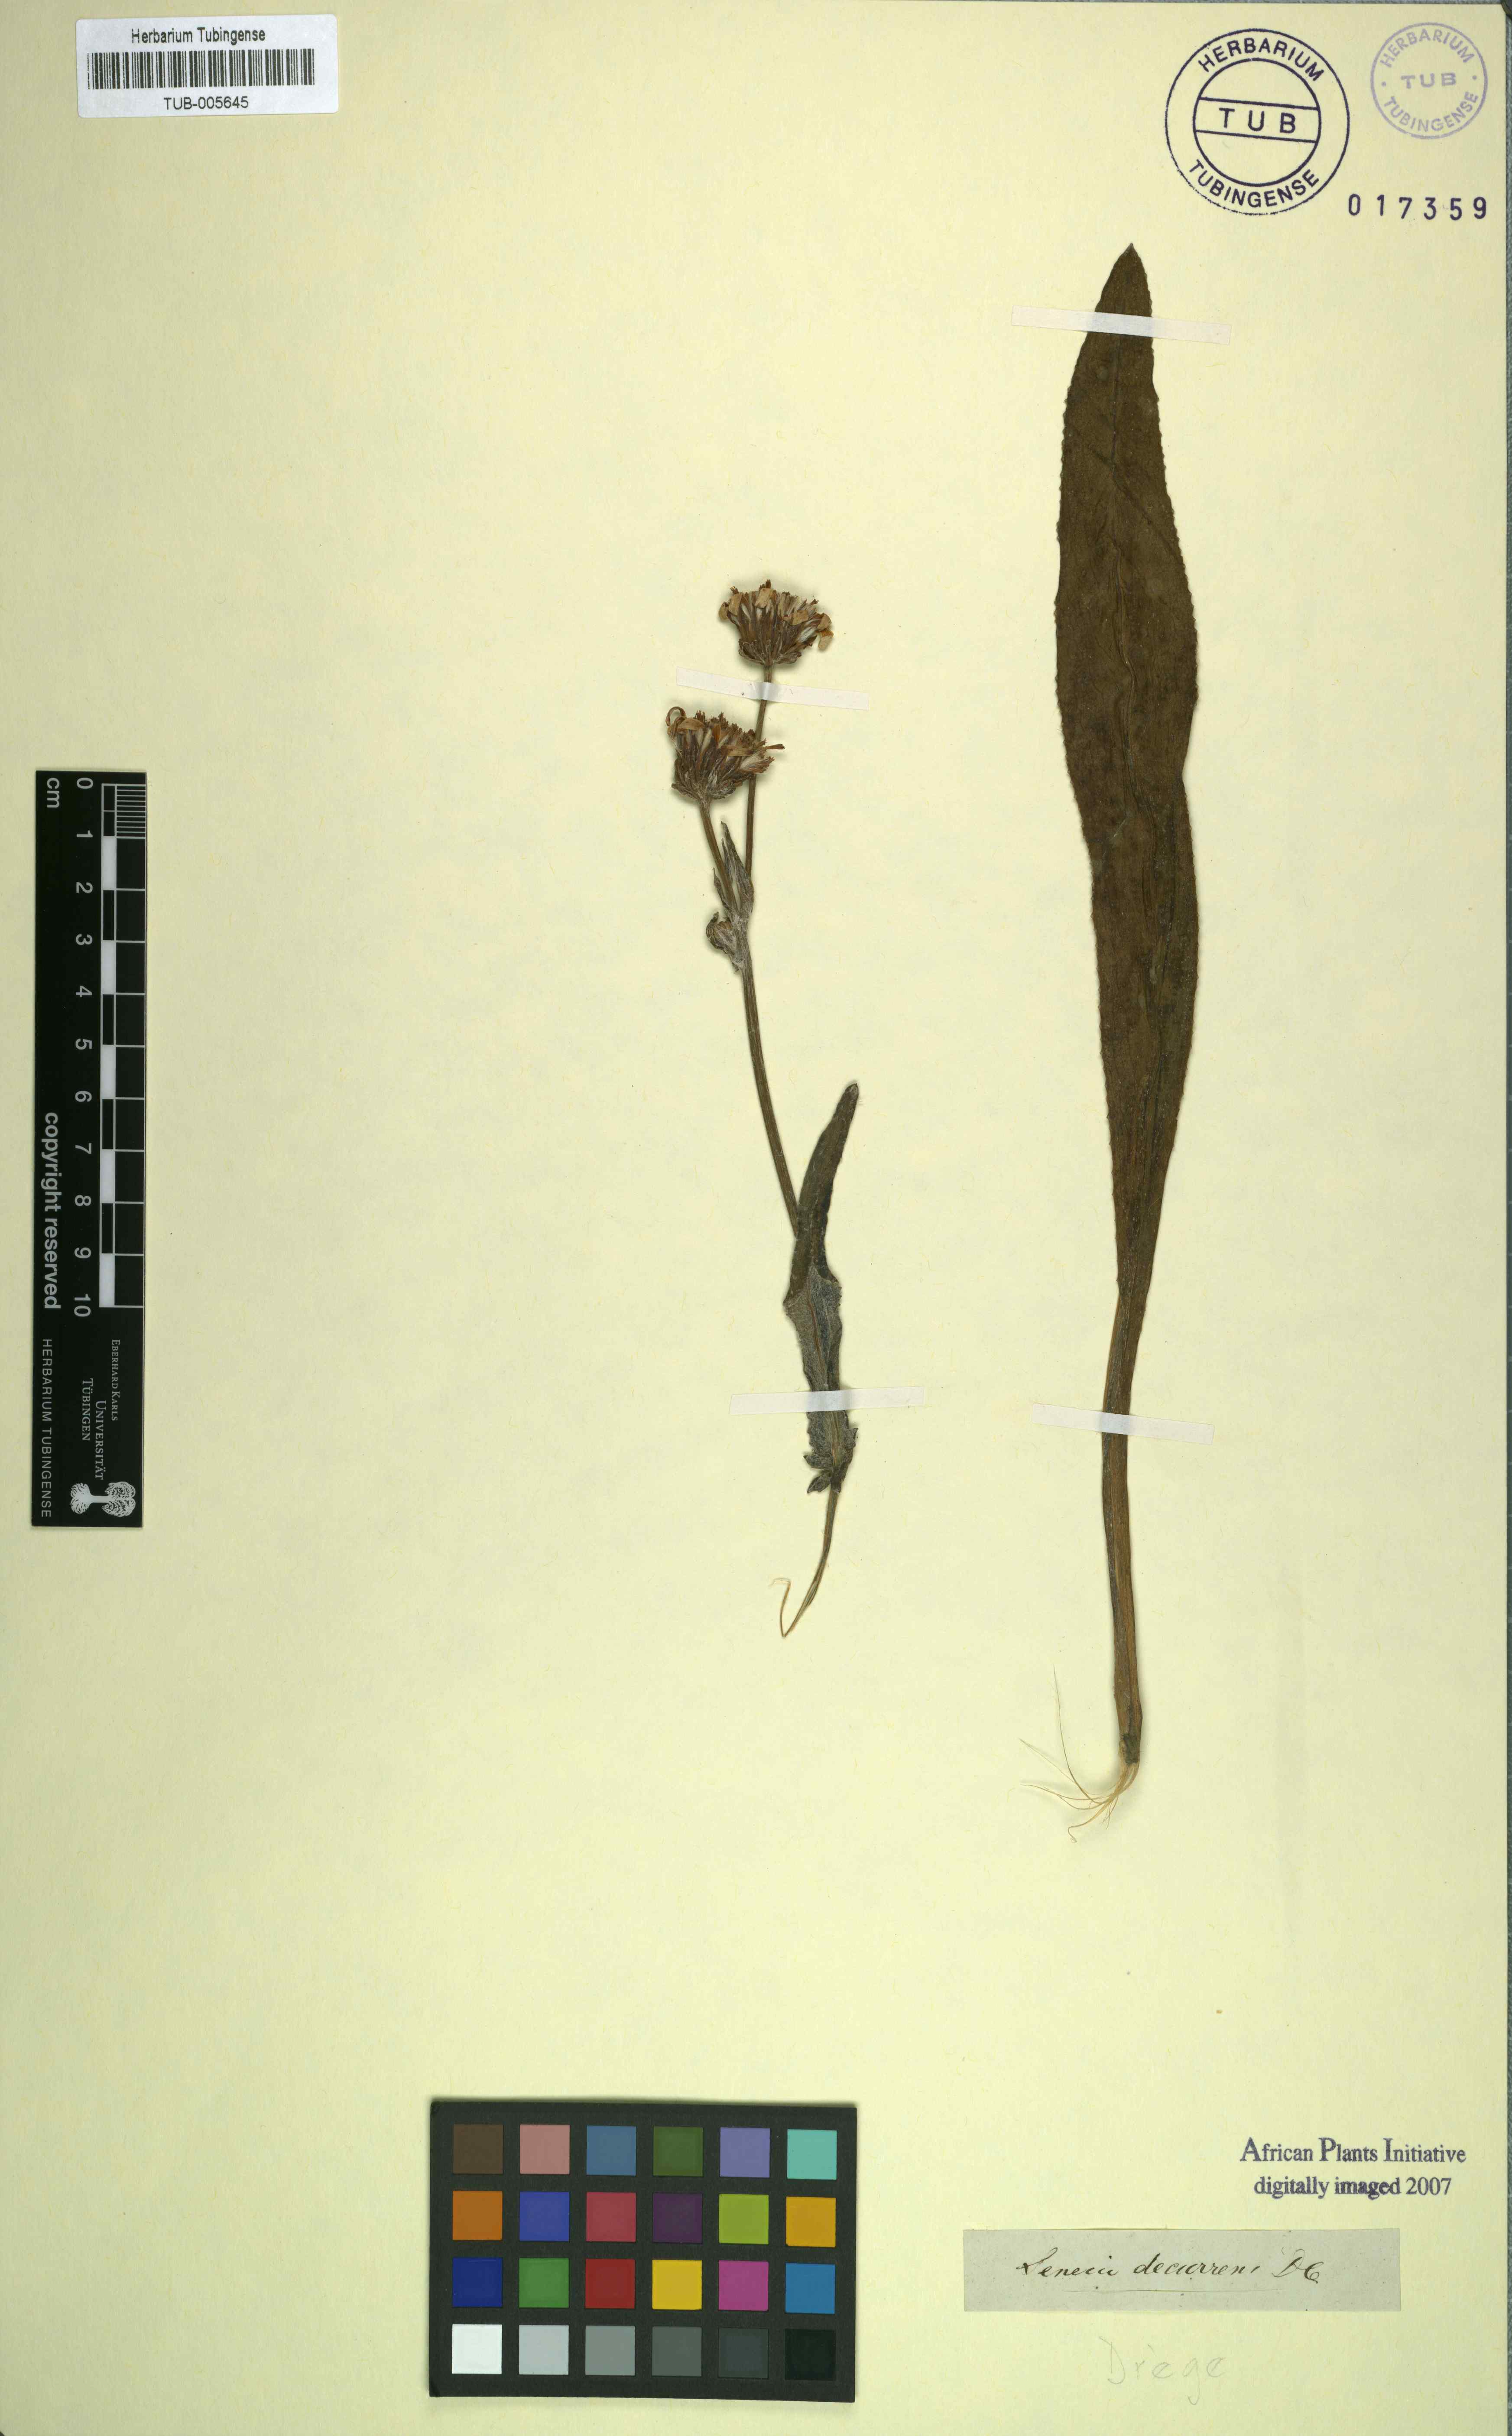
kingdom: Plantae
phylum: Tracheophyta
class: Magnoliopsida
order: Asterales
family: Asteraceae
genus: Senecio
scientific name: Senecio decurrens
